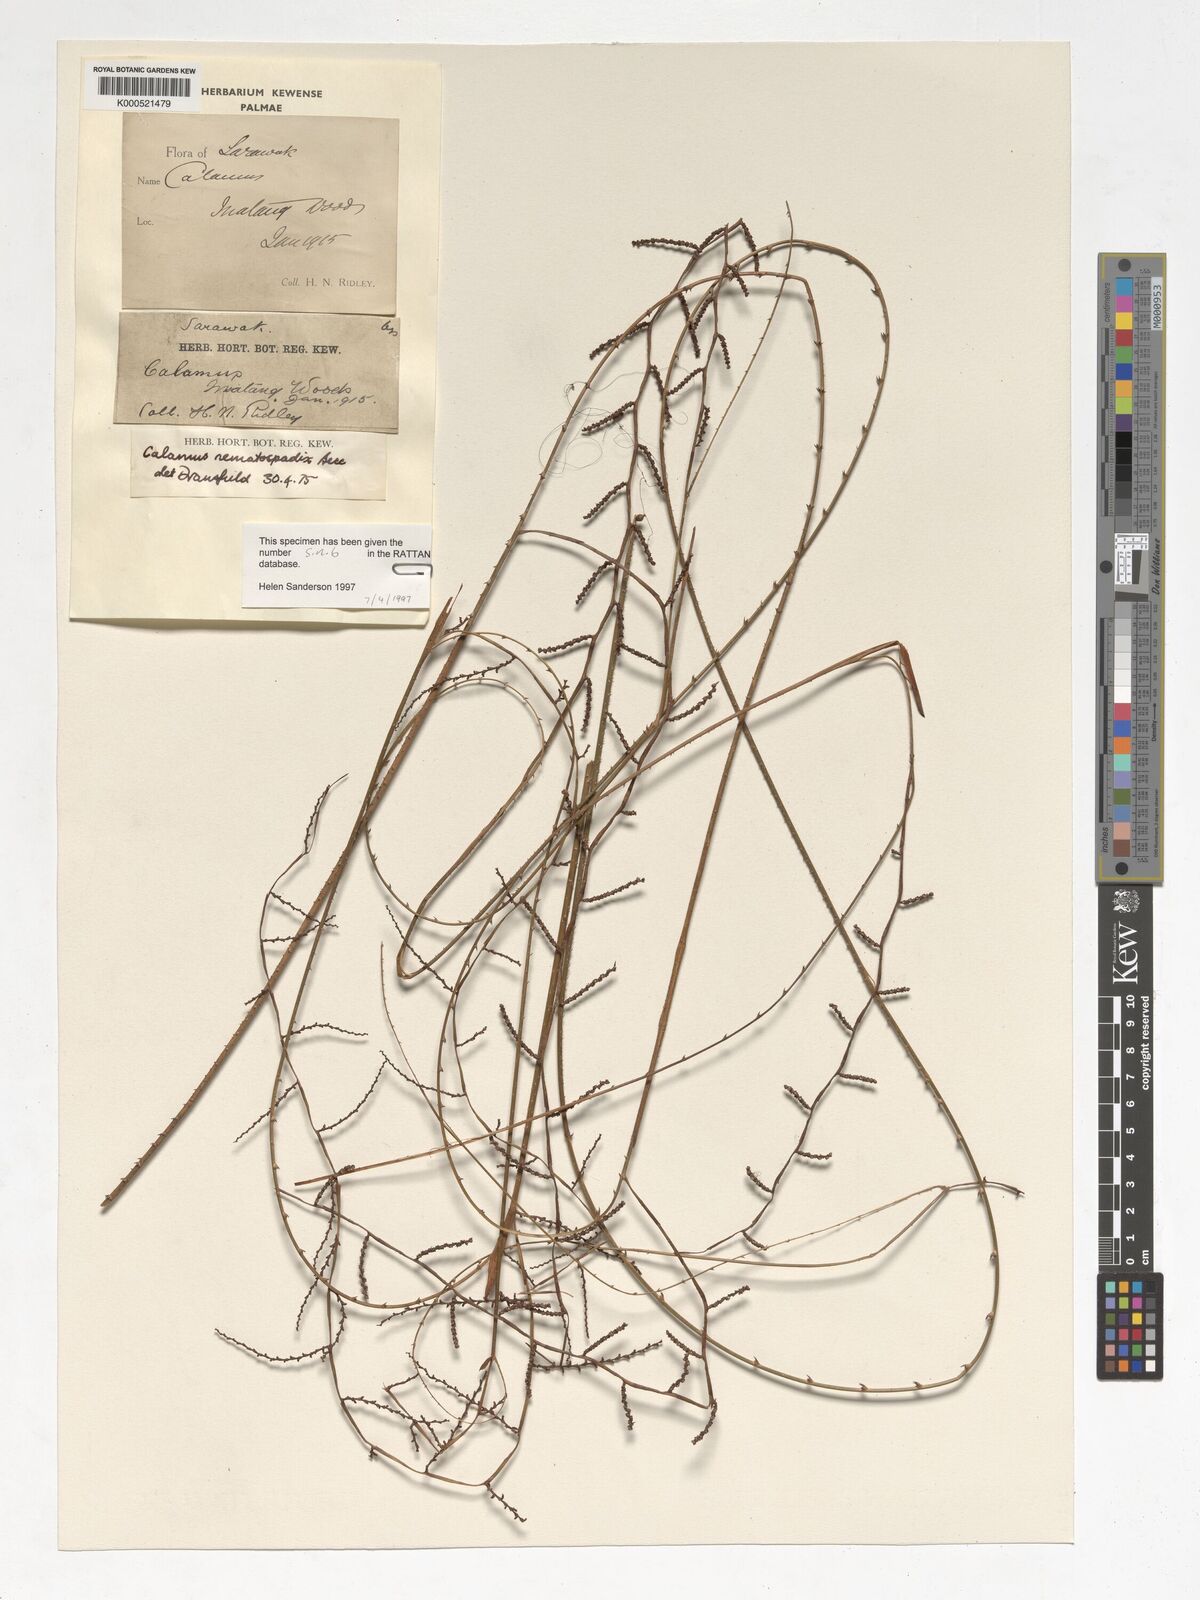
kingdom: Plantae
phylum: Tracheophyta
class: Liliopsida
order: Arecales
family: Arecaceae
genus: Calamus
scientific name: Calamus nematospadix
